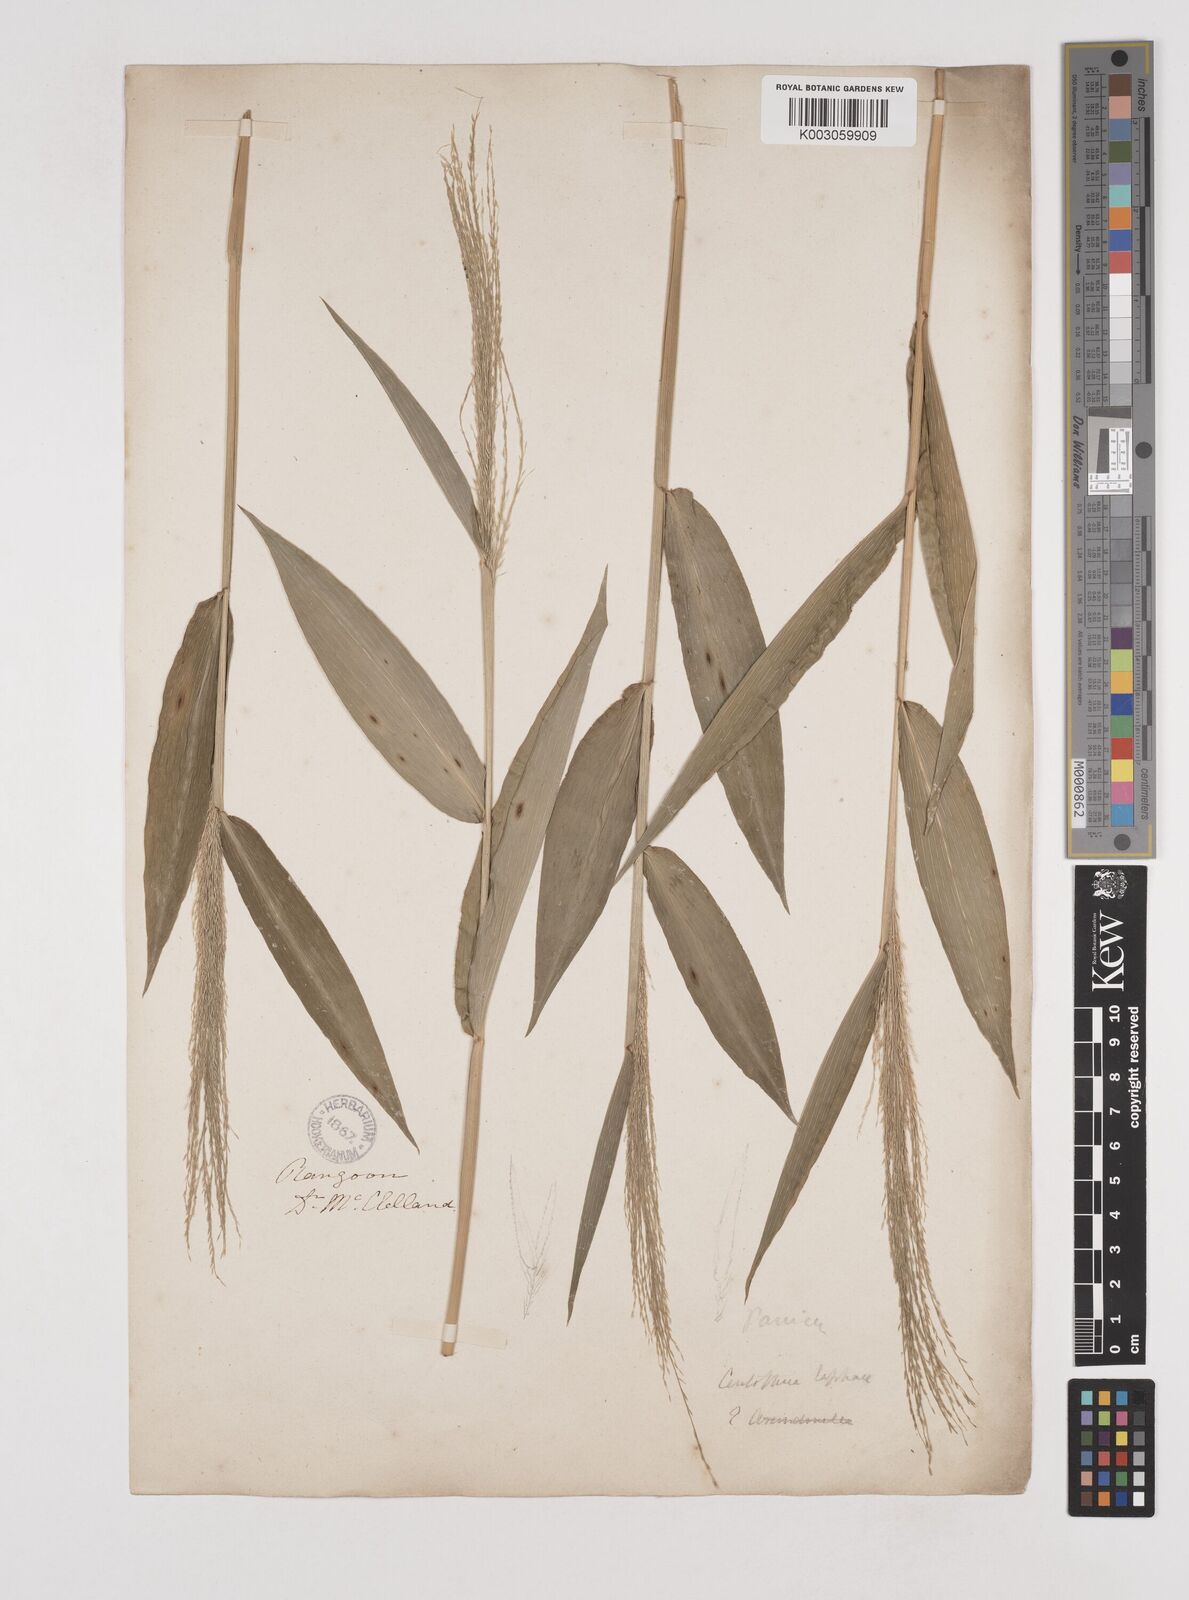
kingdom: Plantae
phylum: Tracheophyta
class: Liliopsida
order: Poales
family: Poaceae
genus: Centotheca
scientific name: Centotheca lappacea
